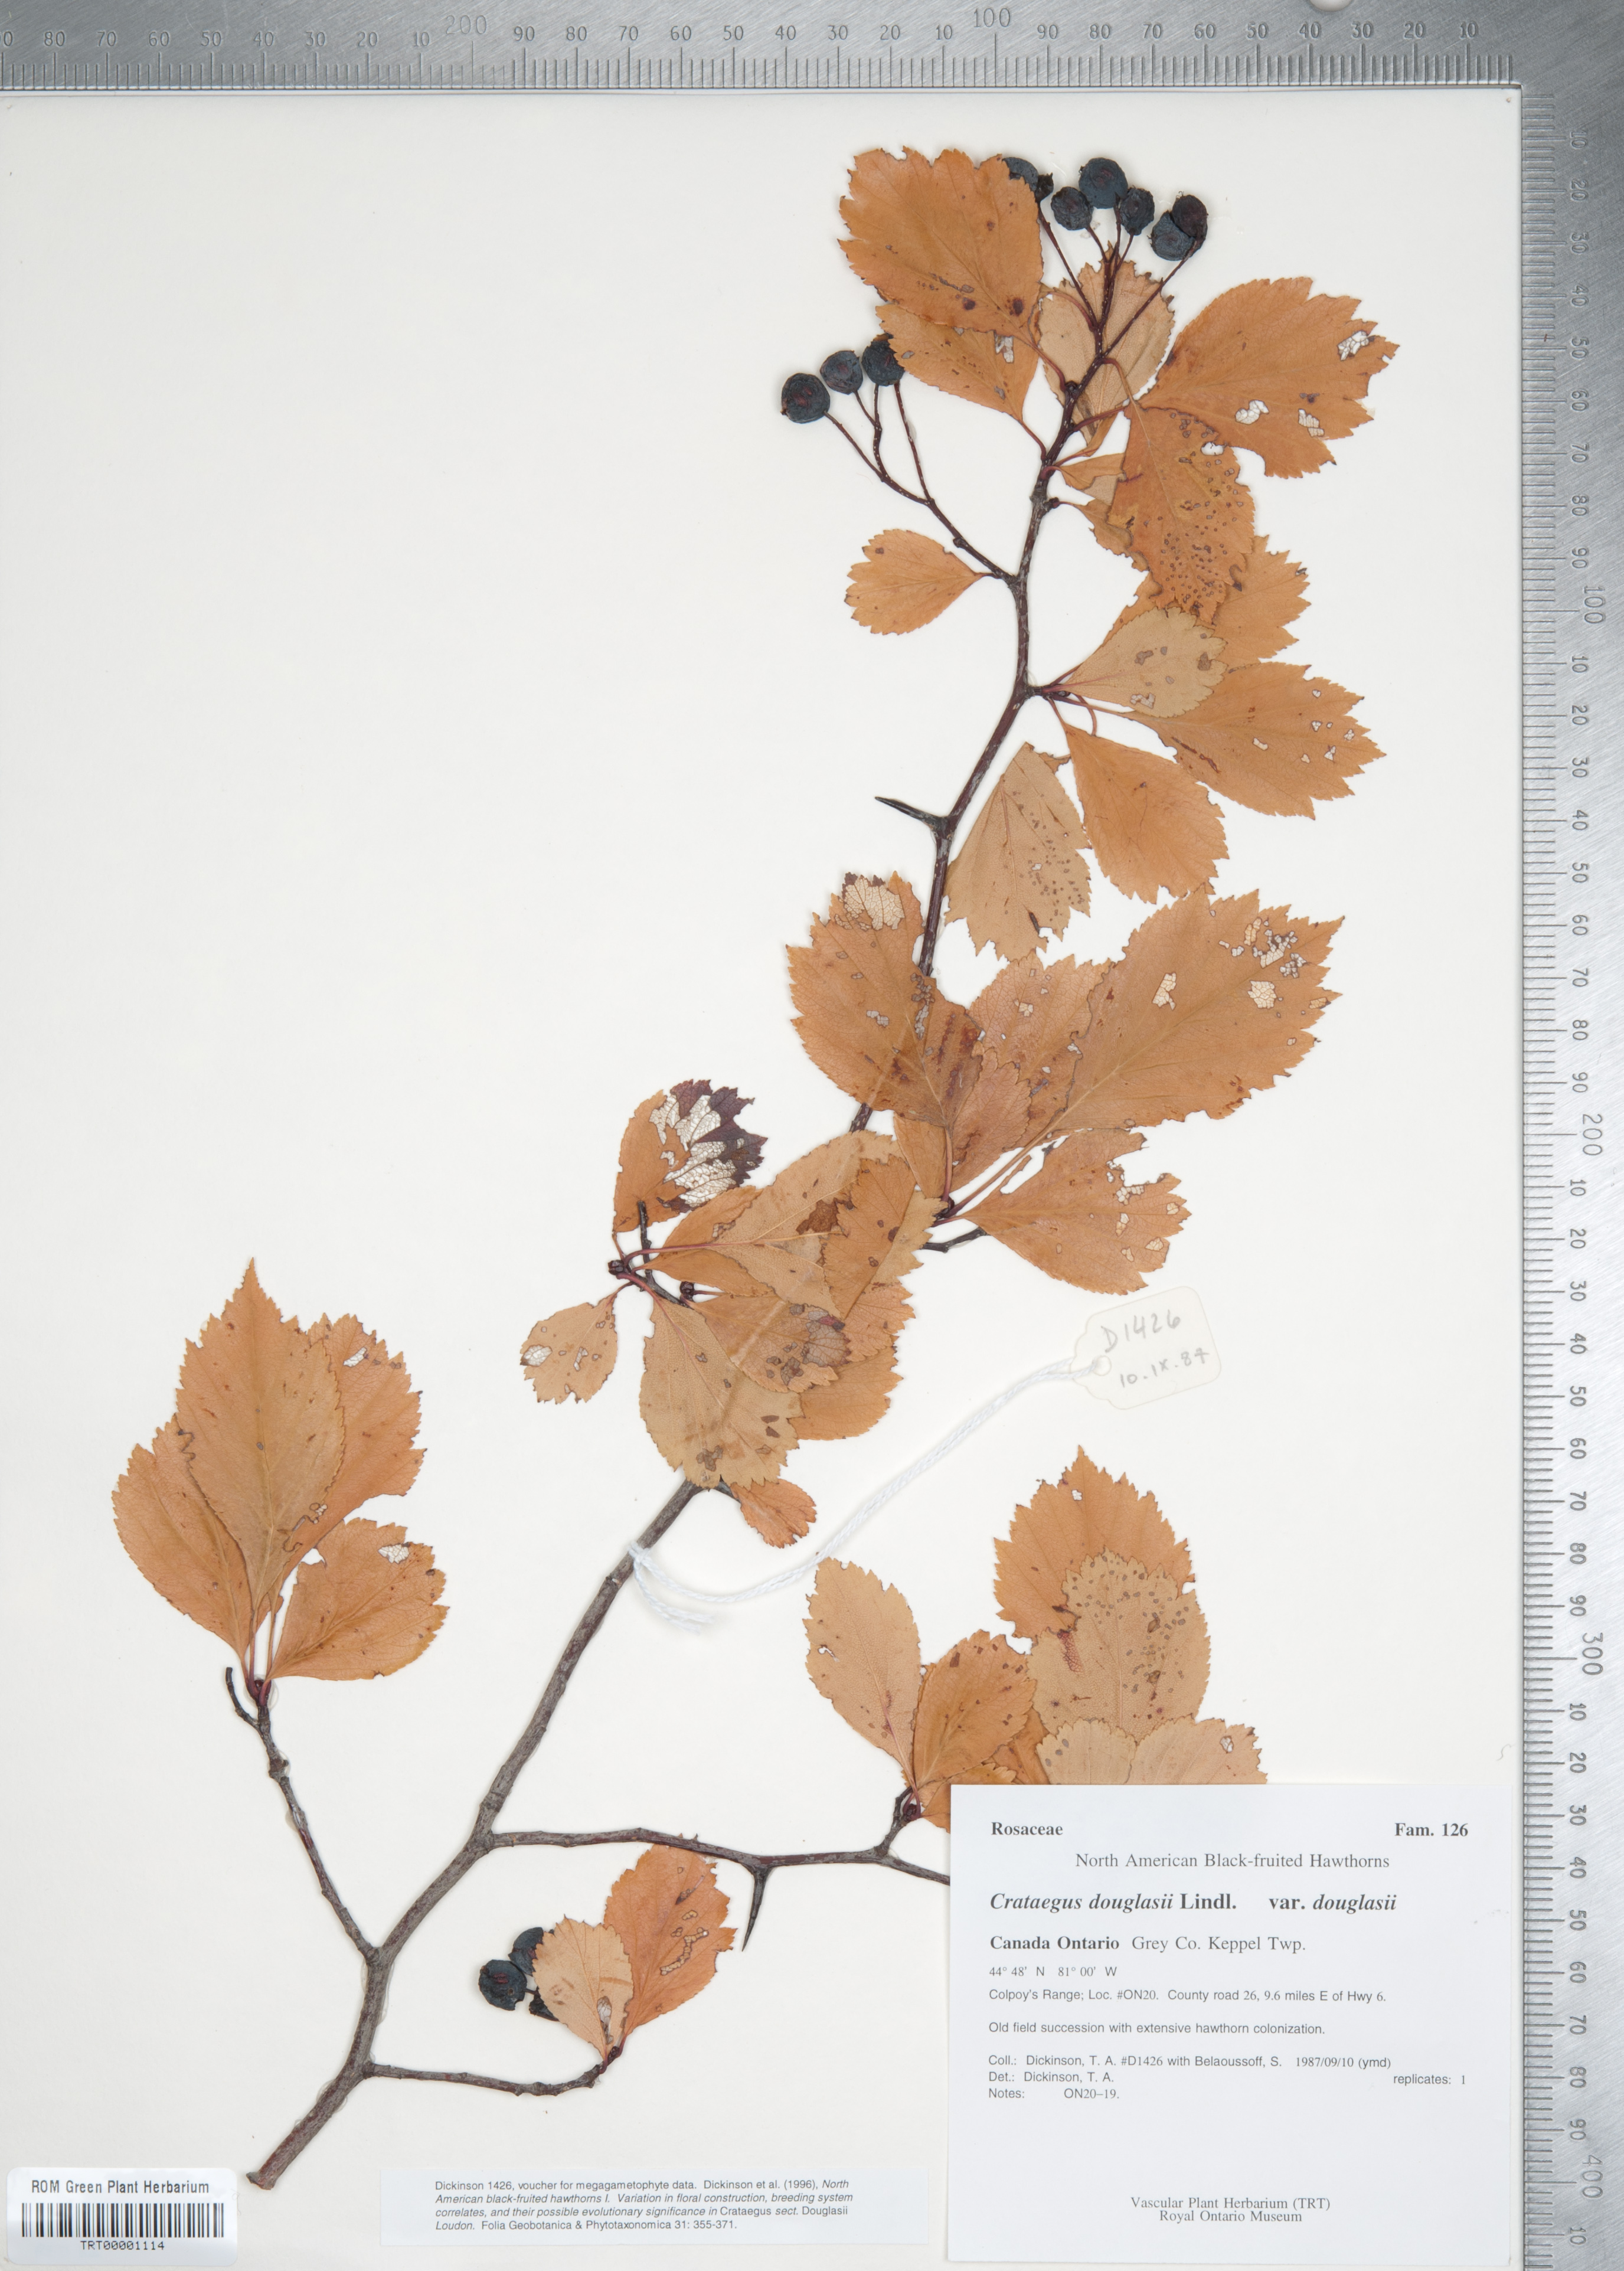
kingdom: Plantae
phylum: Tracheophyta
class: Magnoliopsida
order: Rosales
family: Rosaceae
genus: Crataegus
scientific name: Crataegus douglasii
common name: Black hawthorn
